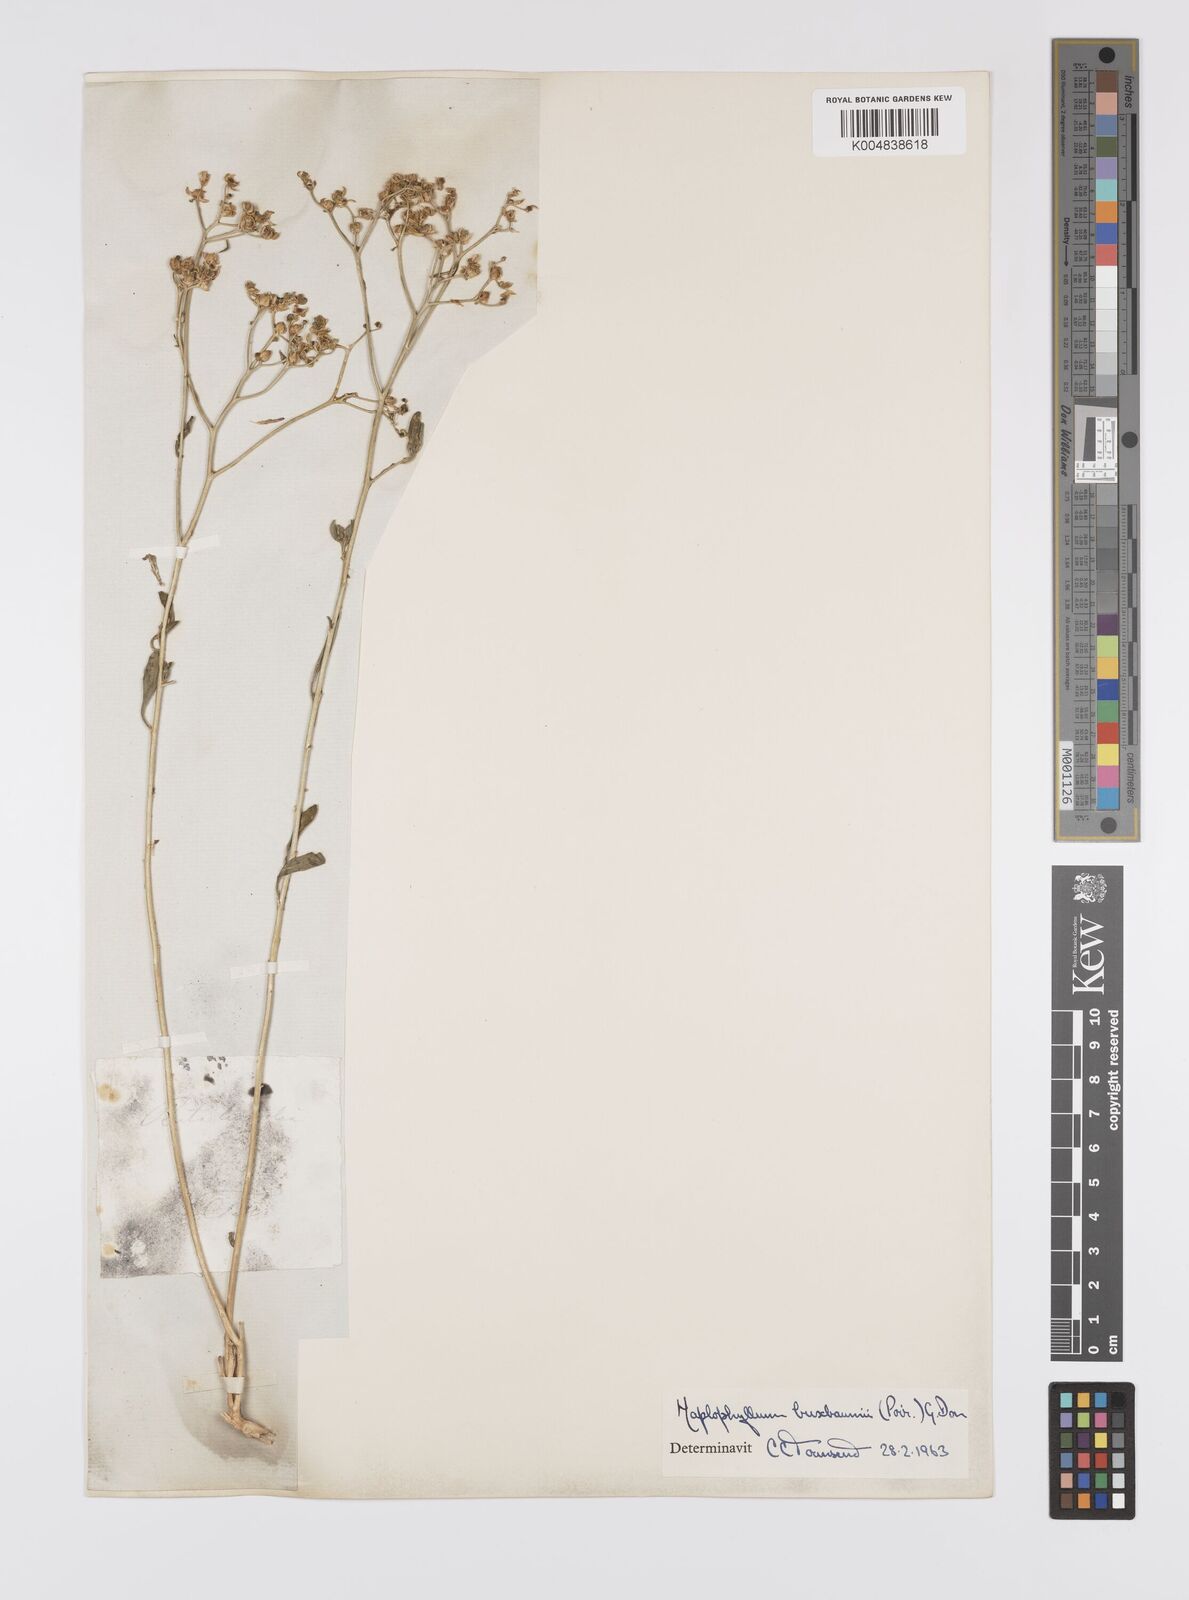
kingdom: Plantae
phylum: Tracheophyta
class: Magnoliopsida
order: Sapindales
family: Rutaceae
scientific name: Rutaceae
